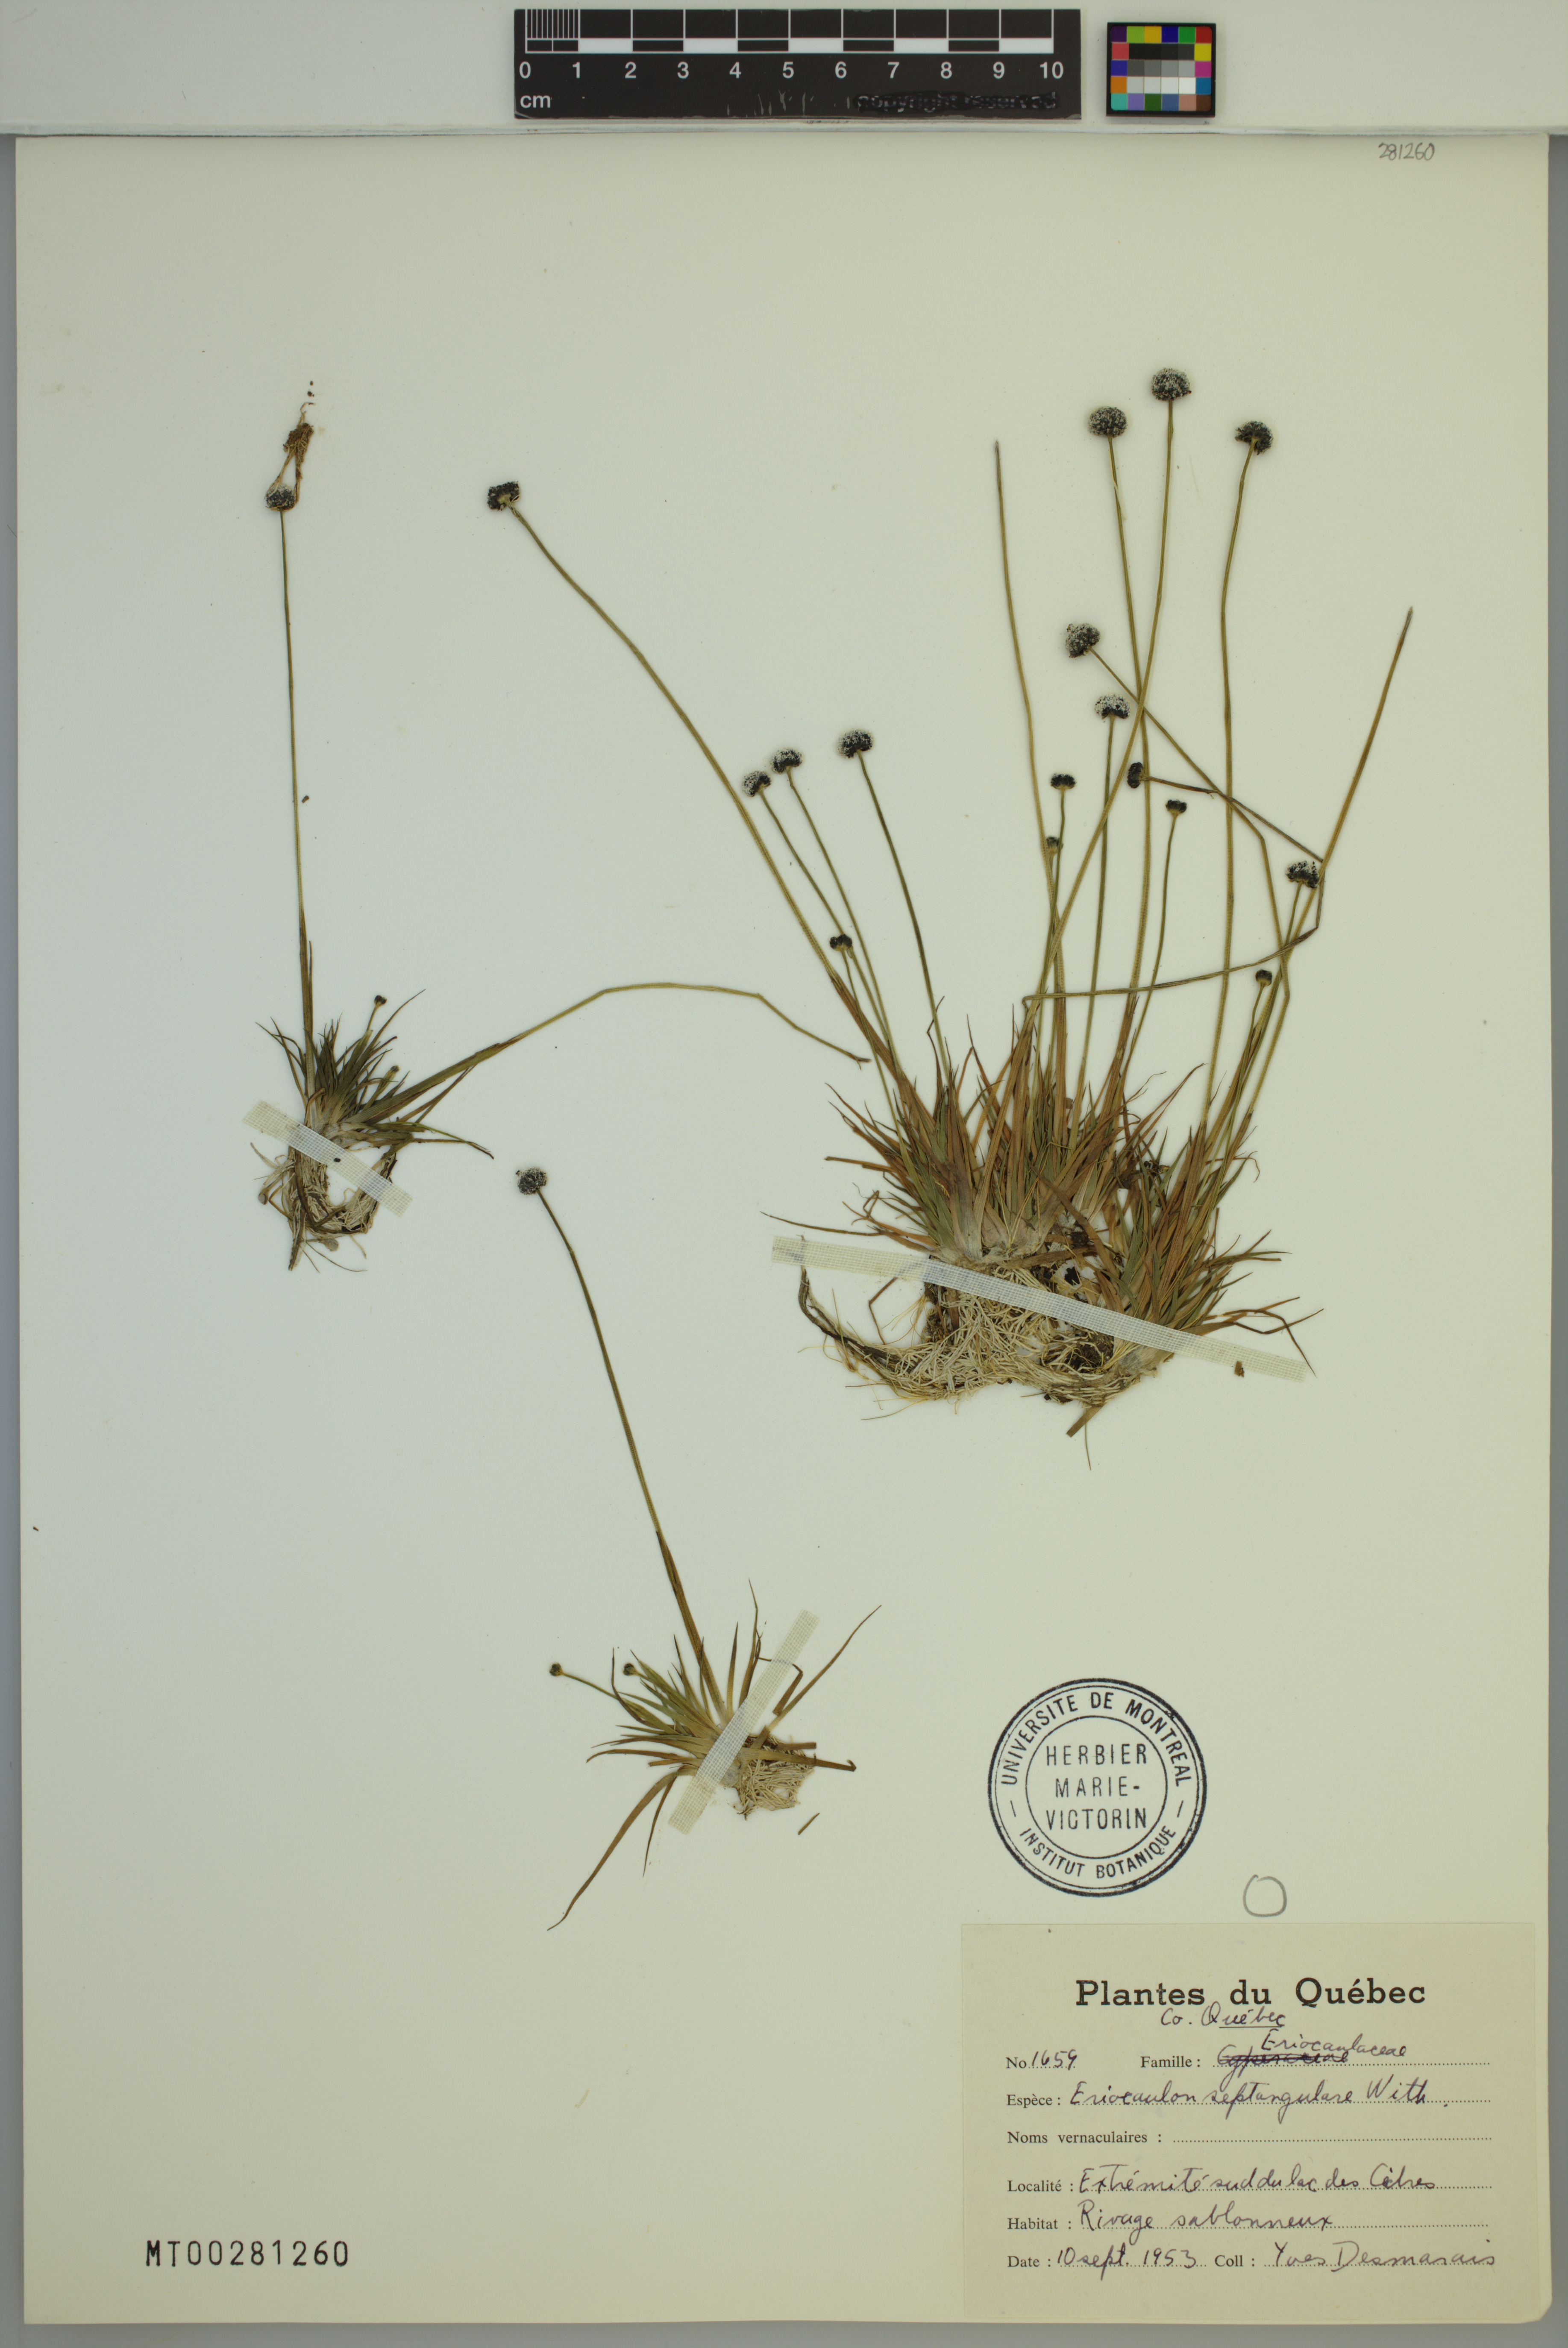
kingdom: Plantae
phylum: Tracheophyta
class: Liliopsida
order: Poales
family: Eriocaulaceae
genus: Eriocaulon
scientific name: Eriocaulon aquaticum
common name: Pipewort
